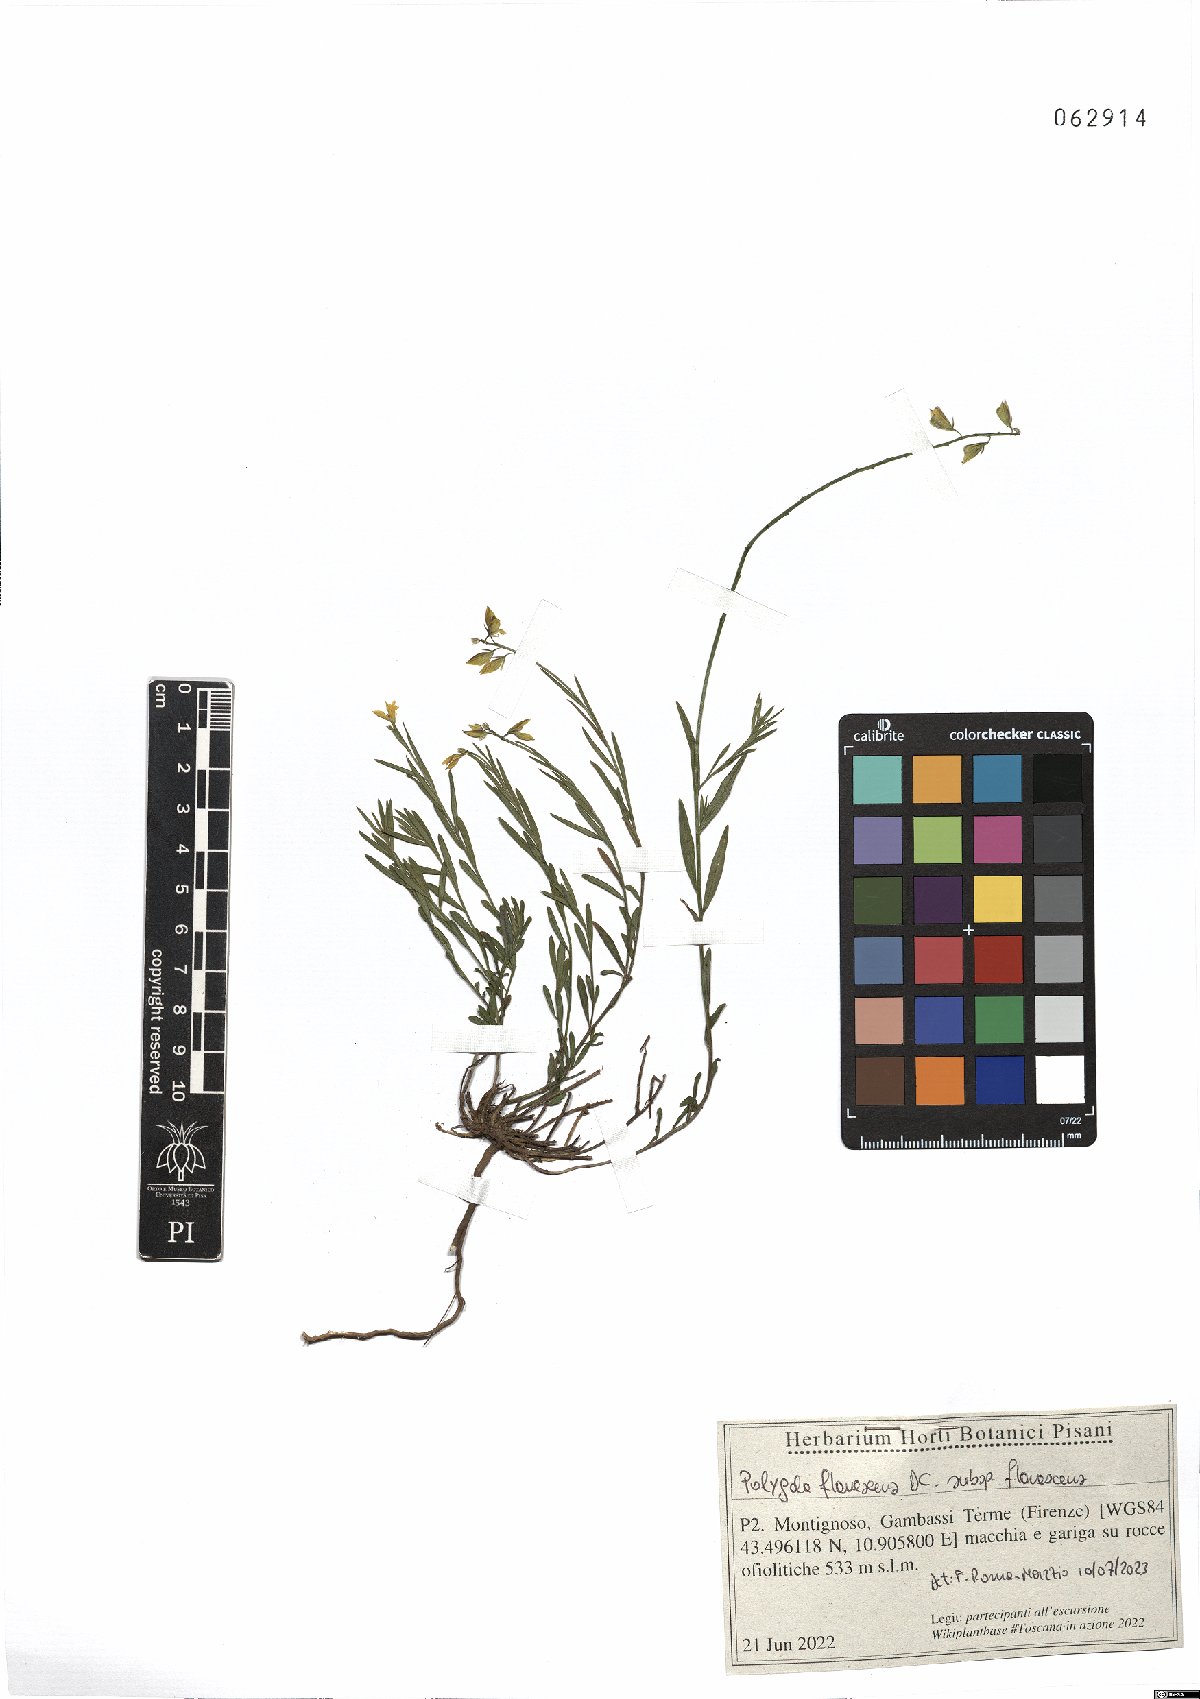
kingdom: Plantae
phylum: Tracheophyta
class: Magnoliopsida
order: Fabales
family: Polygalaceae
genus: Polygala
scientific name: Polygala flavescens
